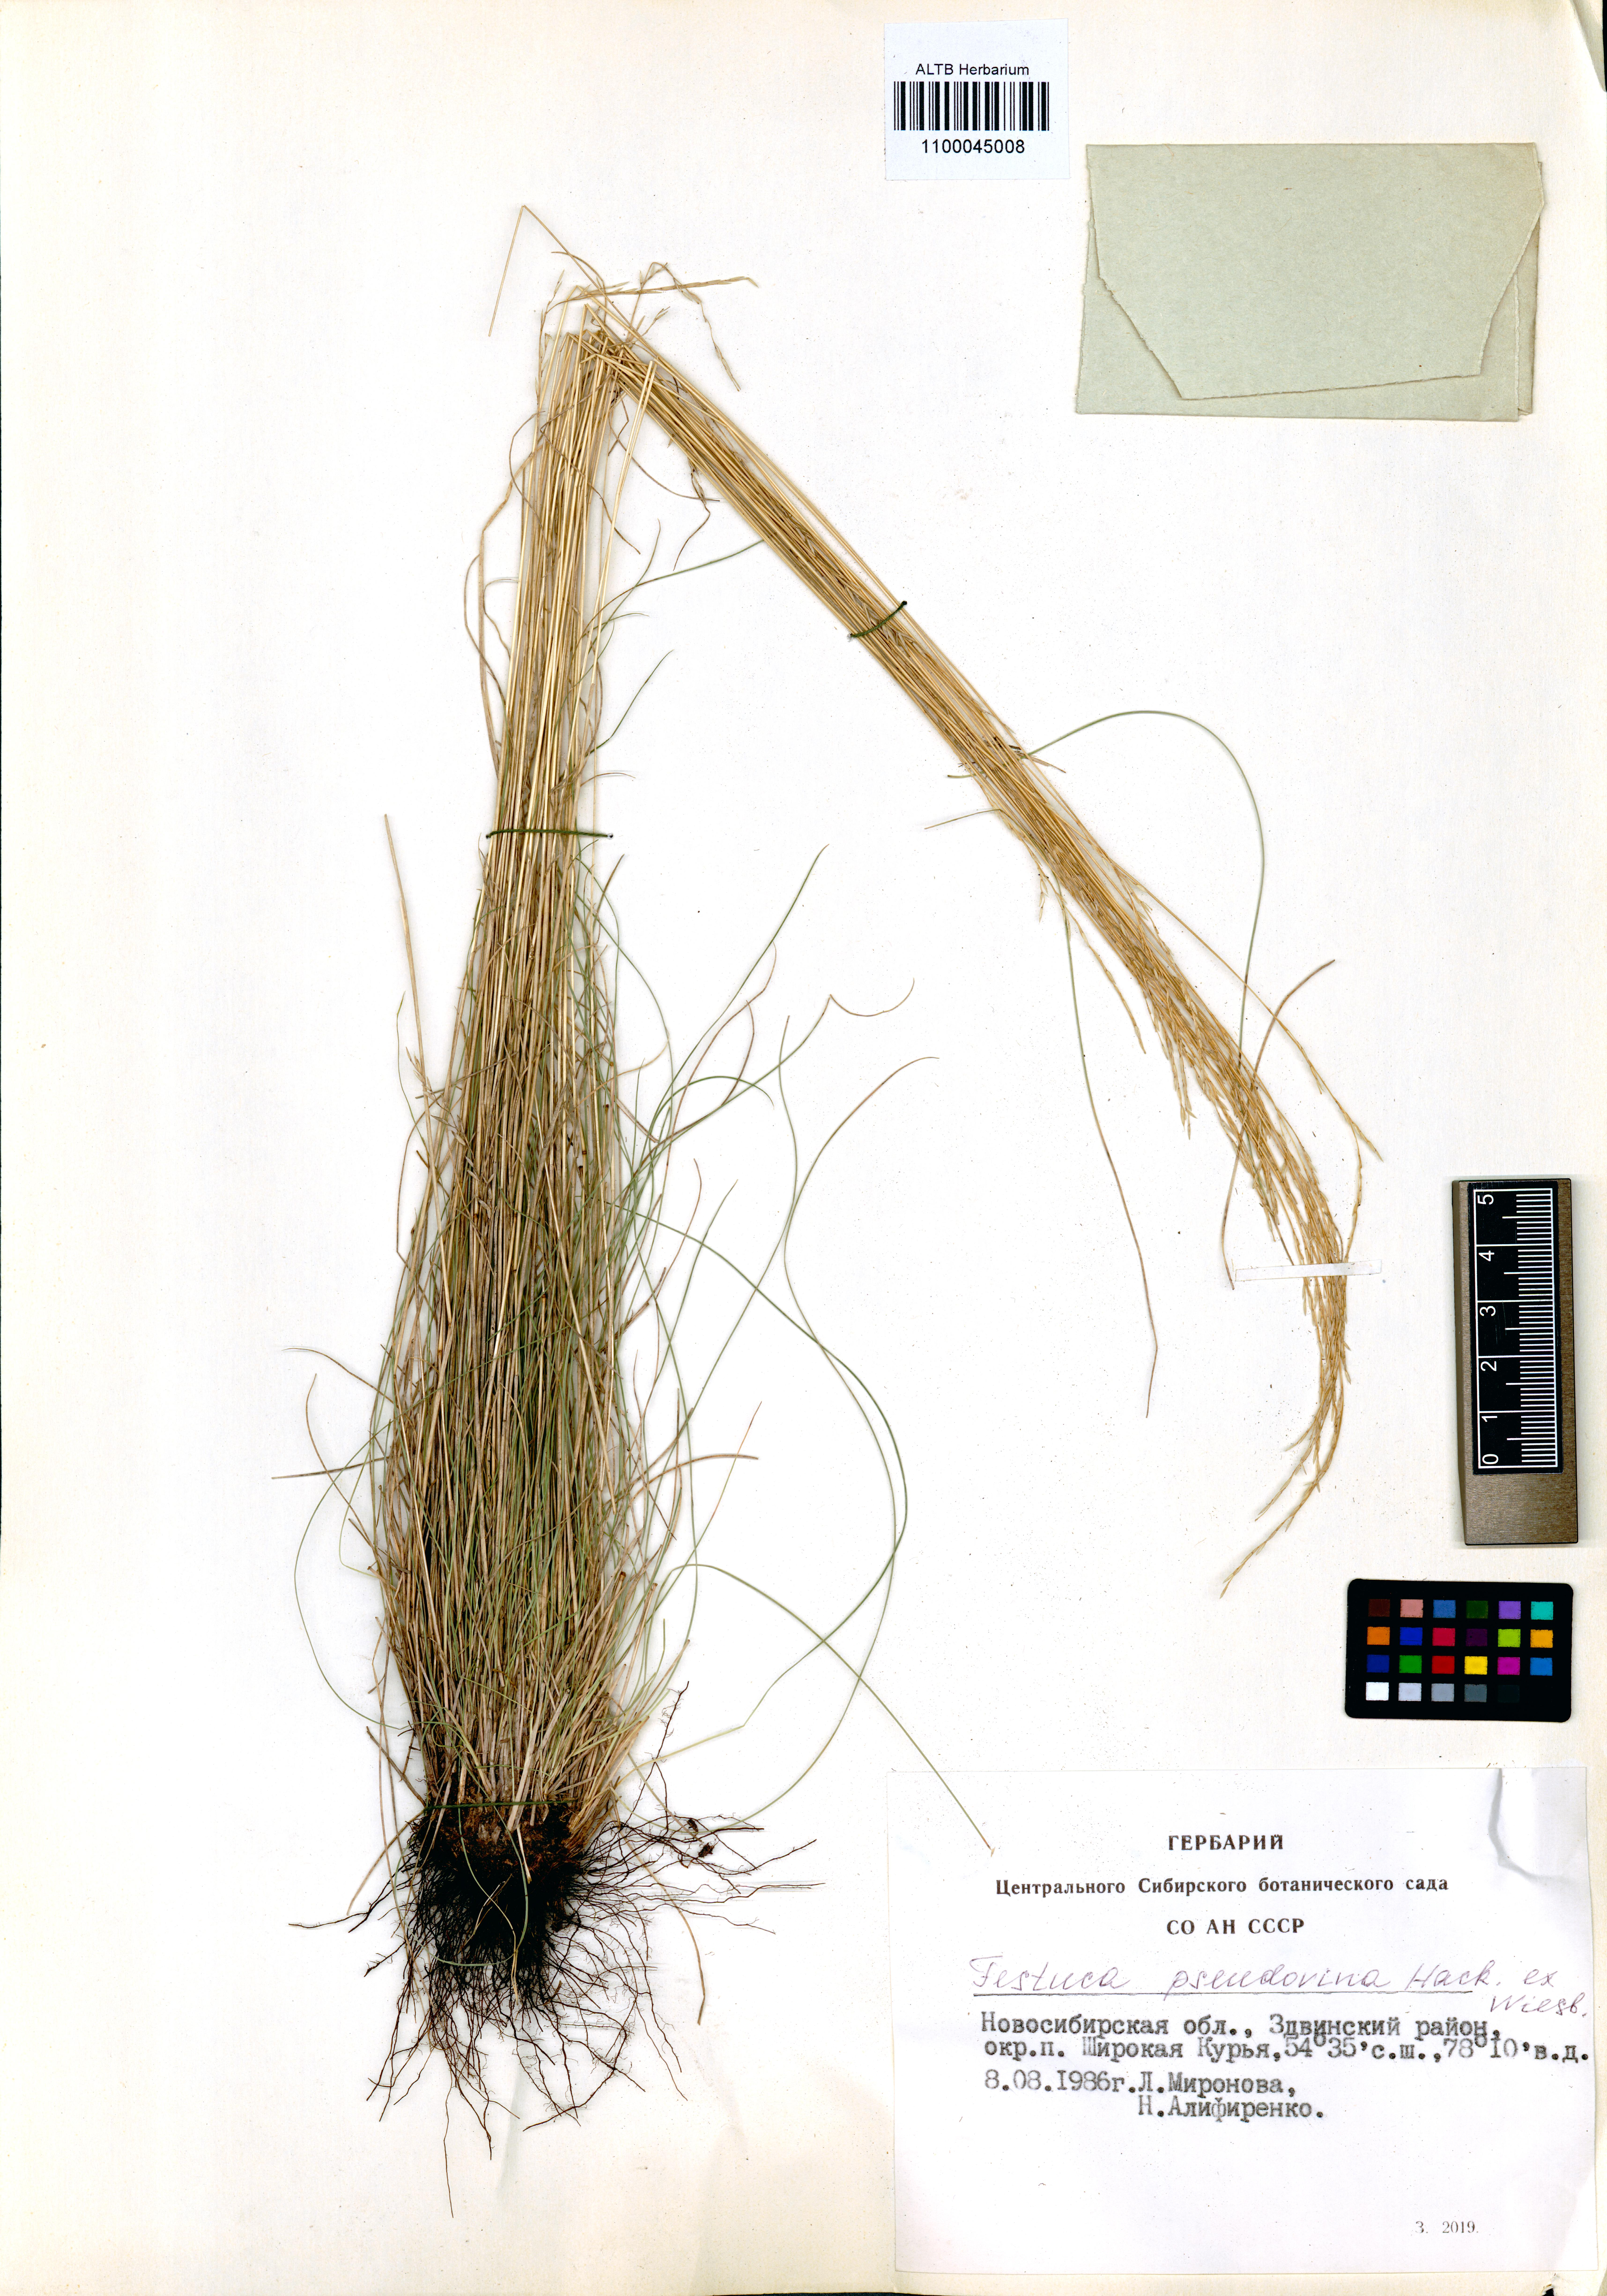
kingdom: Plantae
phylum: Tracheophyta
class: Liliopsida
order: Poales
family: Poaceae
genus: Festuca
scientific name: Festuca pulchra
